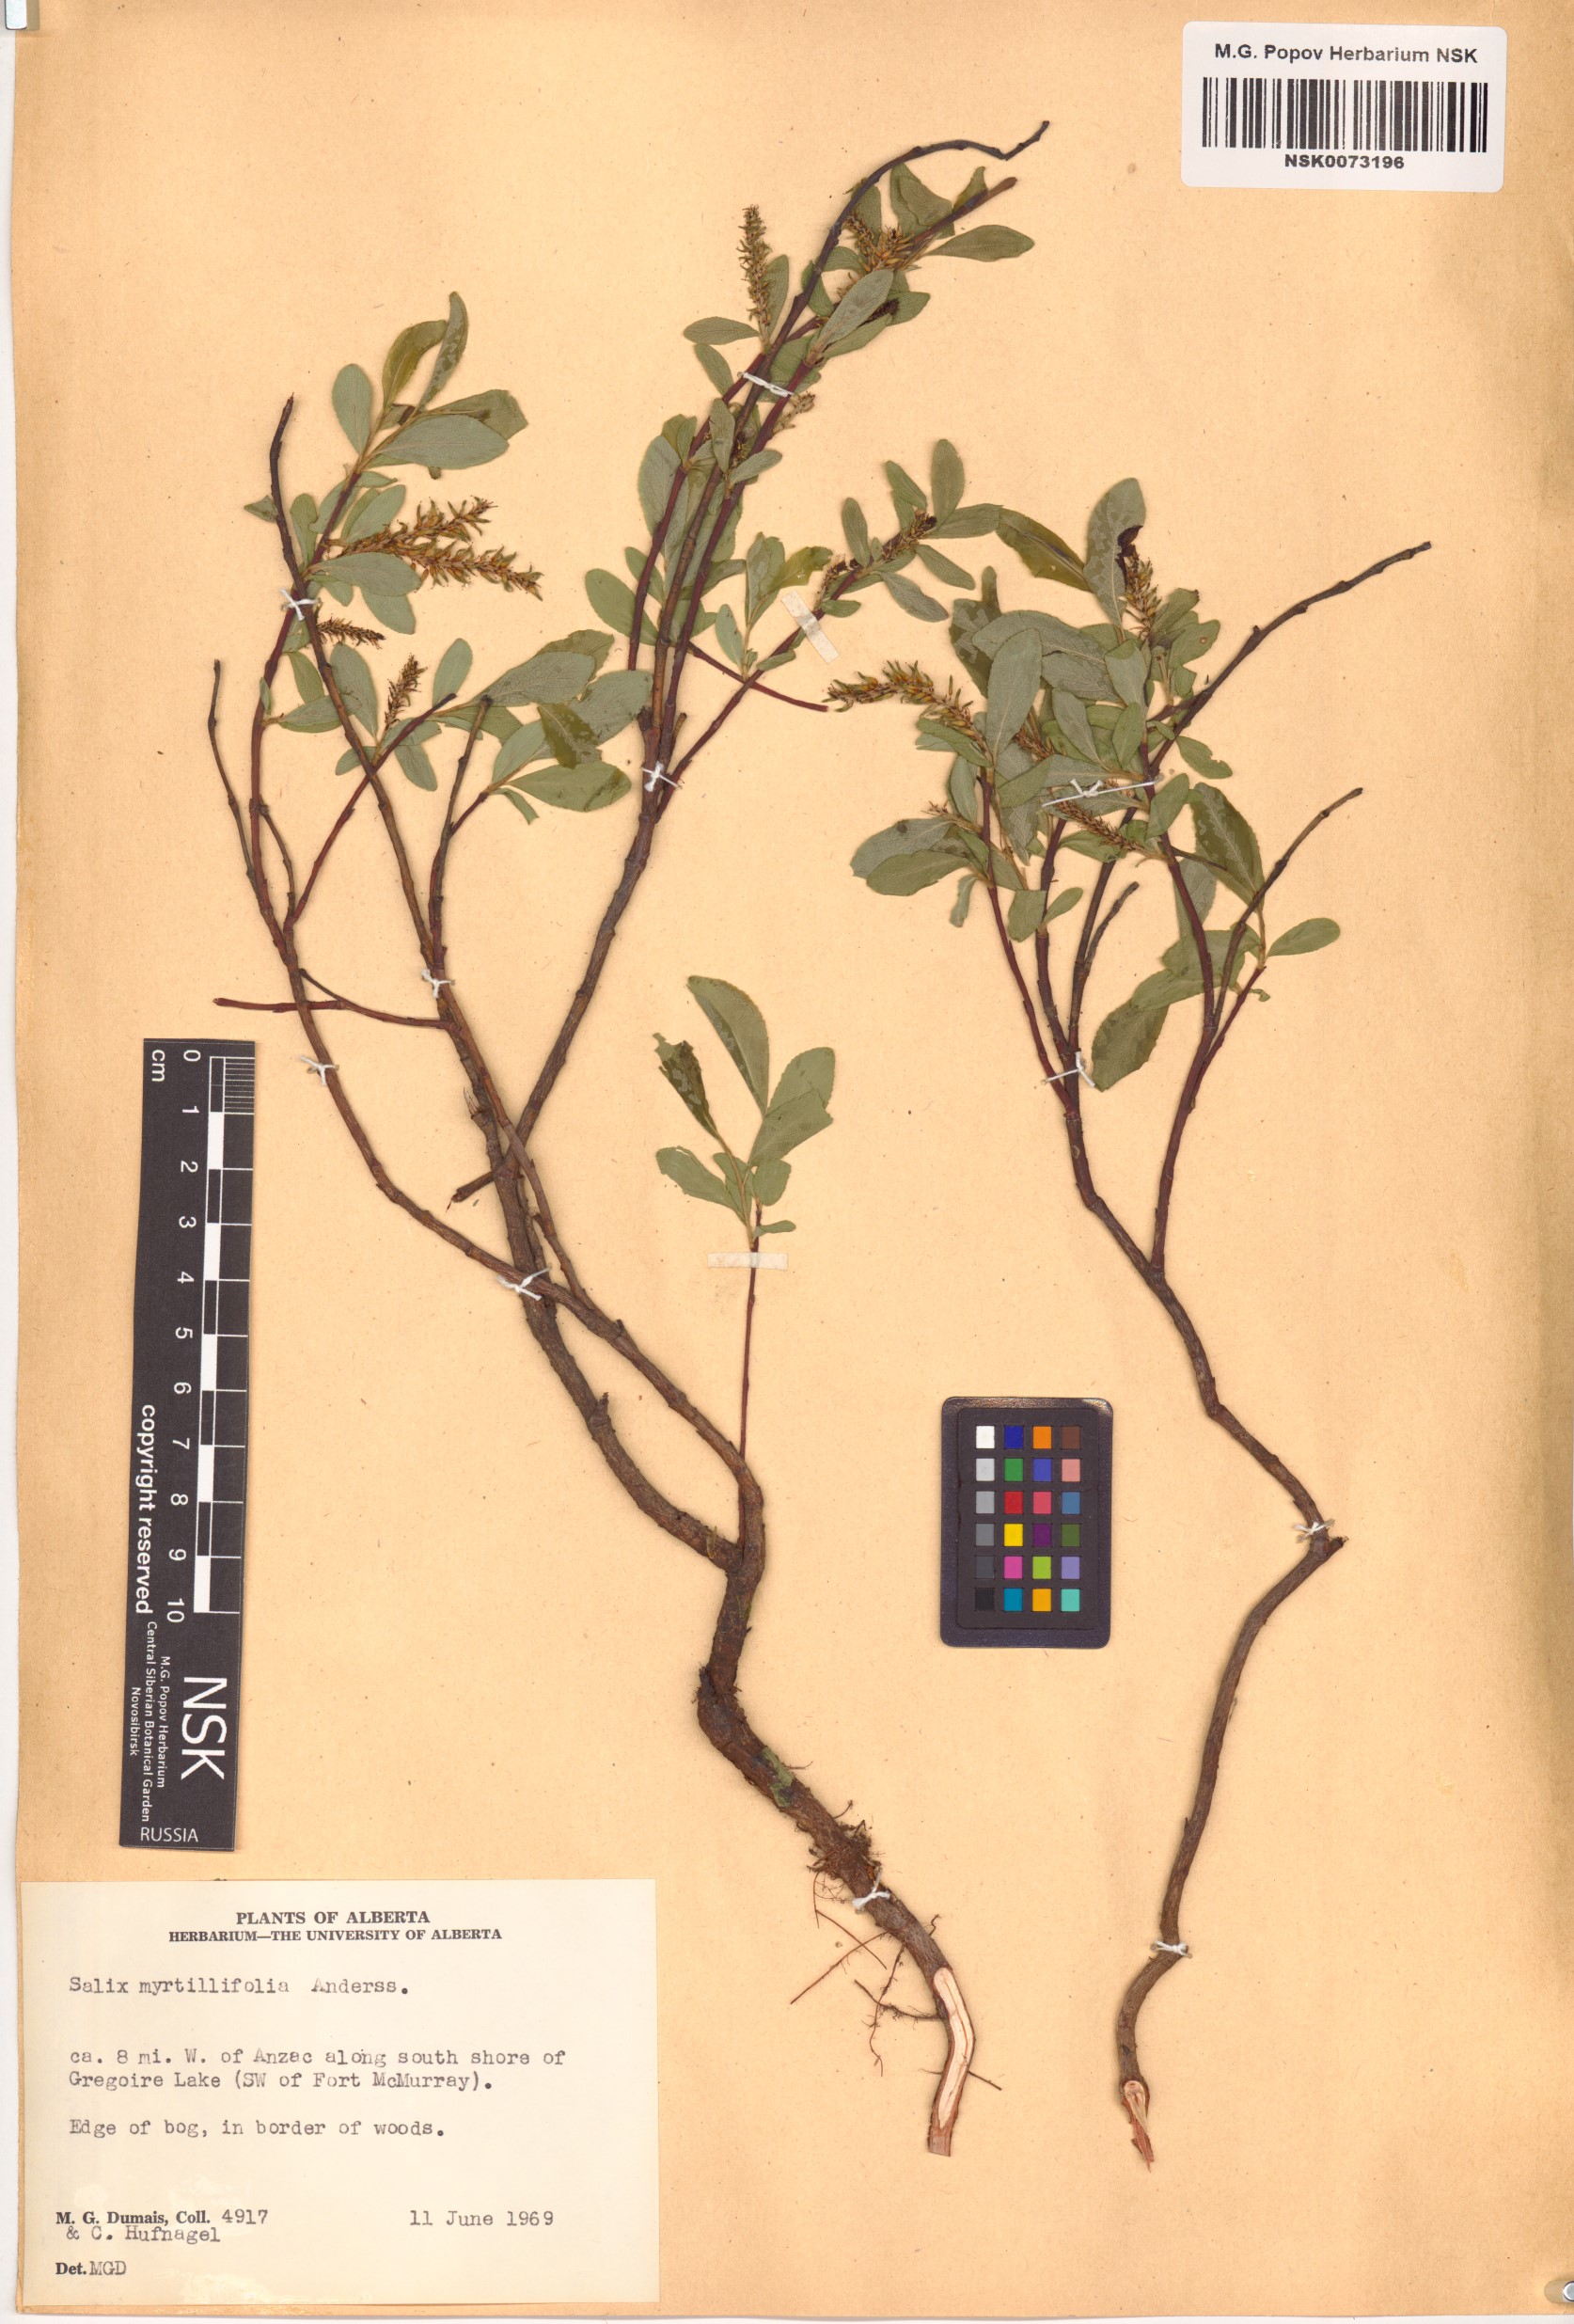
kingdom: Plantae
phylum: Tracheophyta
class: Magnoliopsida
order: Malpighiales
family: Salicaceae
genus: Salix
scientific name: Salix myrtillifolia
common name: Bilberry willow
